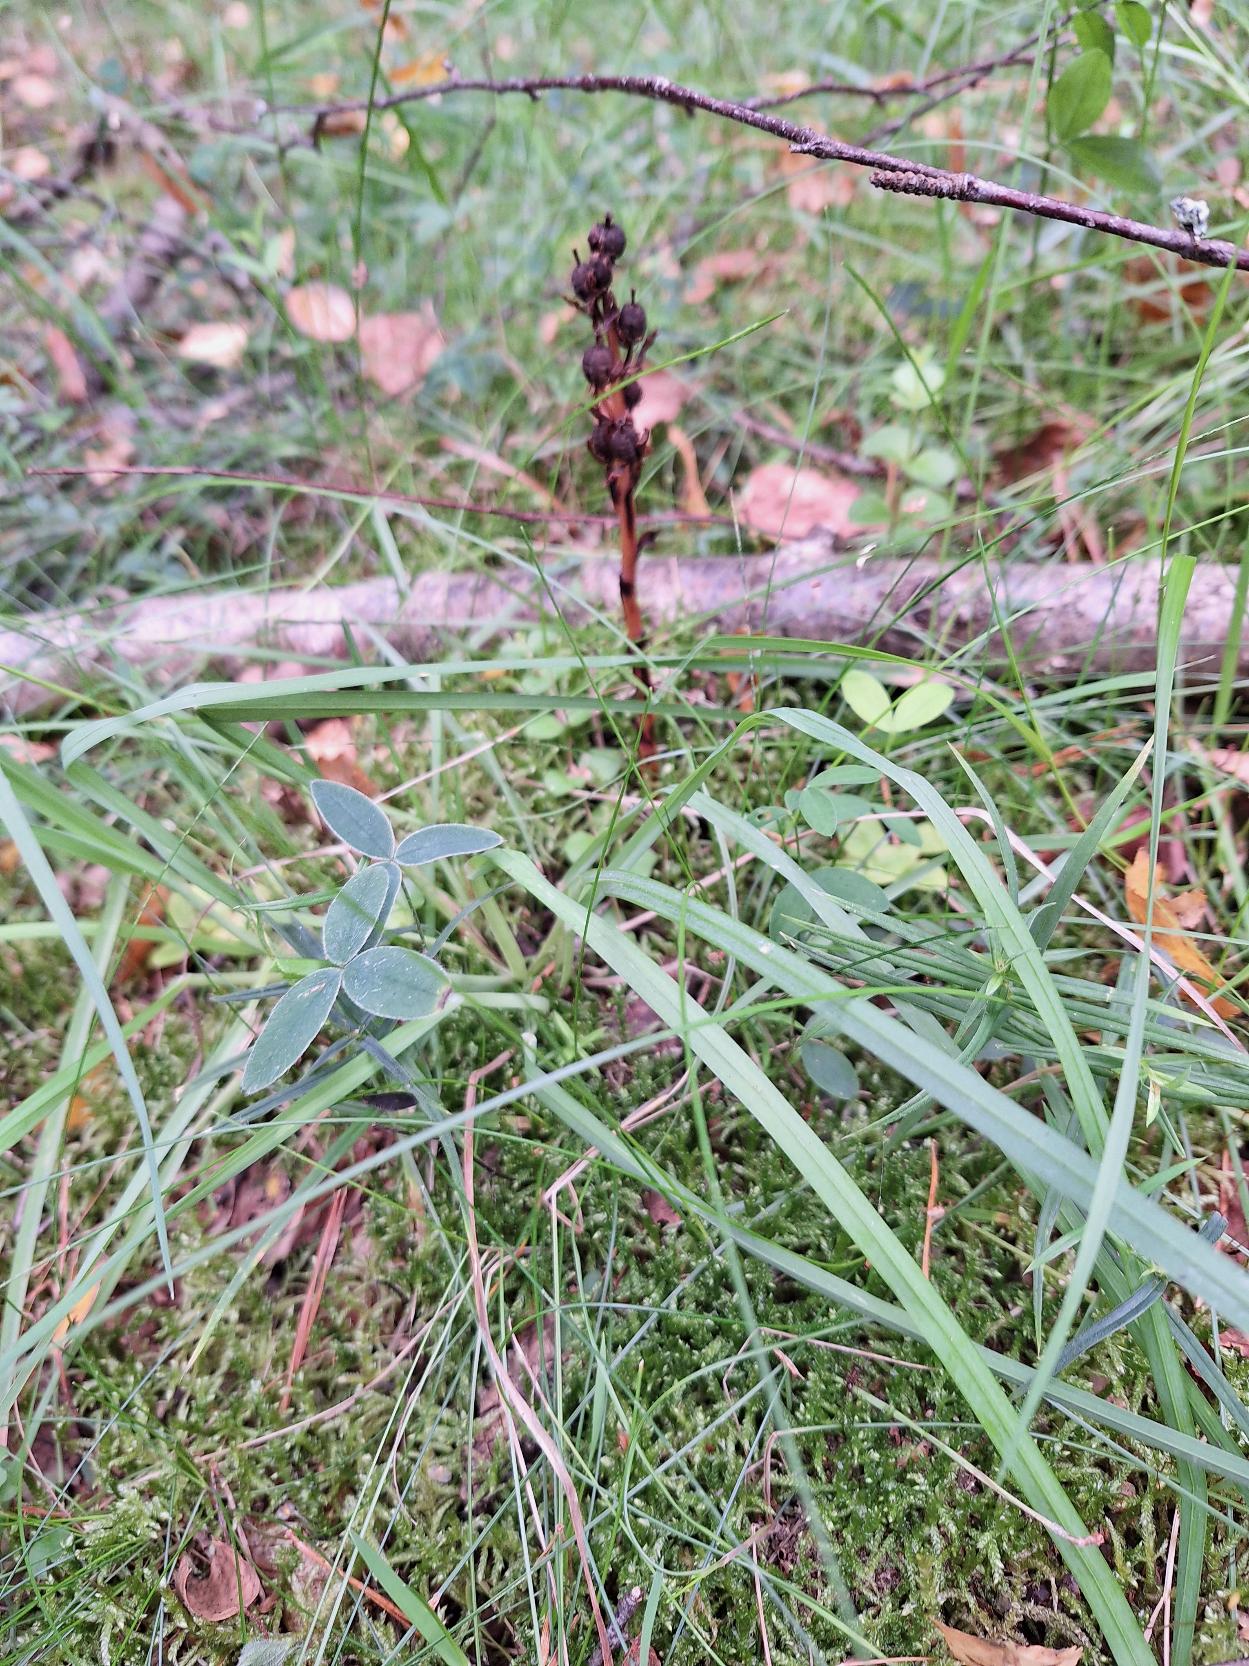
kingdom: Plantae
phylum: Tracheophyta
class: Magnoliopsida
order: Ericales
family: Ericaceae
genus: Hypopitys
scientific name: Hypopitys monotropa
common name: Snylterod
